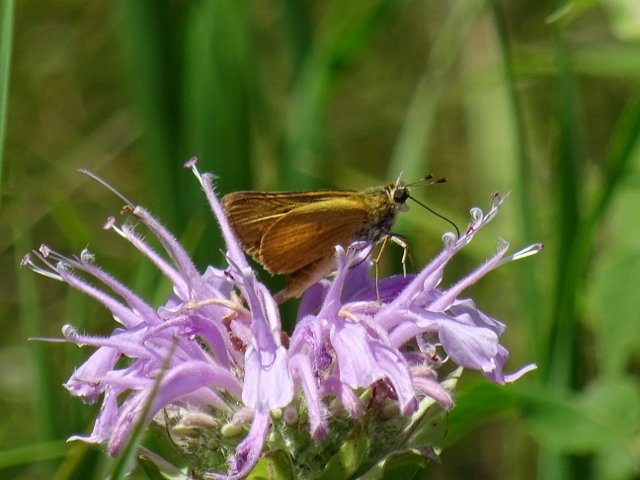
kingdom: Animalia
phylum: Arthropoda
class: Insecta
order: Lepidoptera
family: Hesperiidae
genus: Atrytone
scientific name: Atrytone delaware
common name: Delaware Skipper
